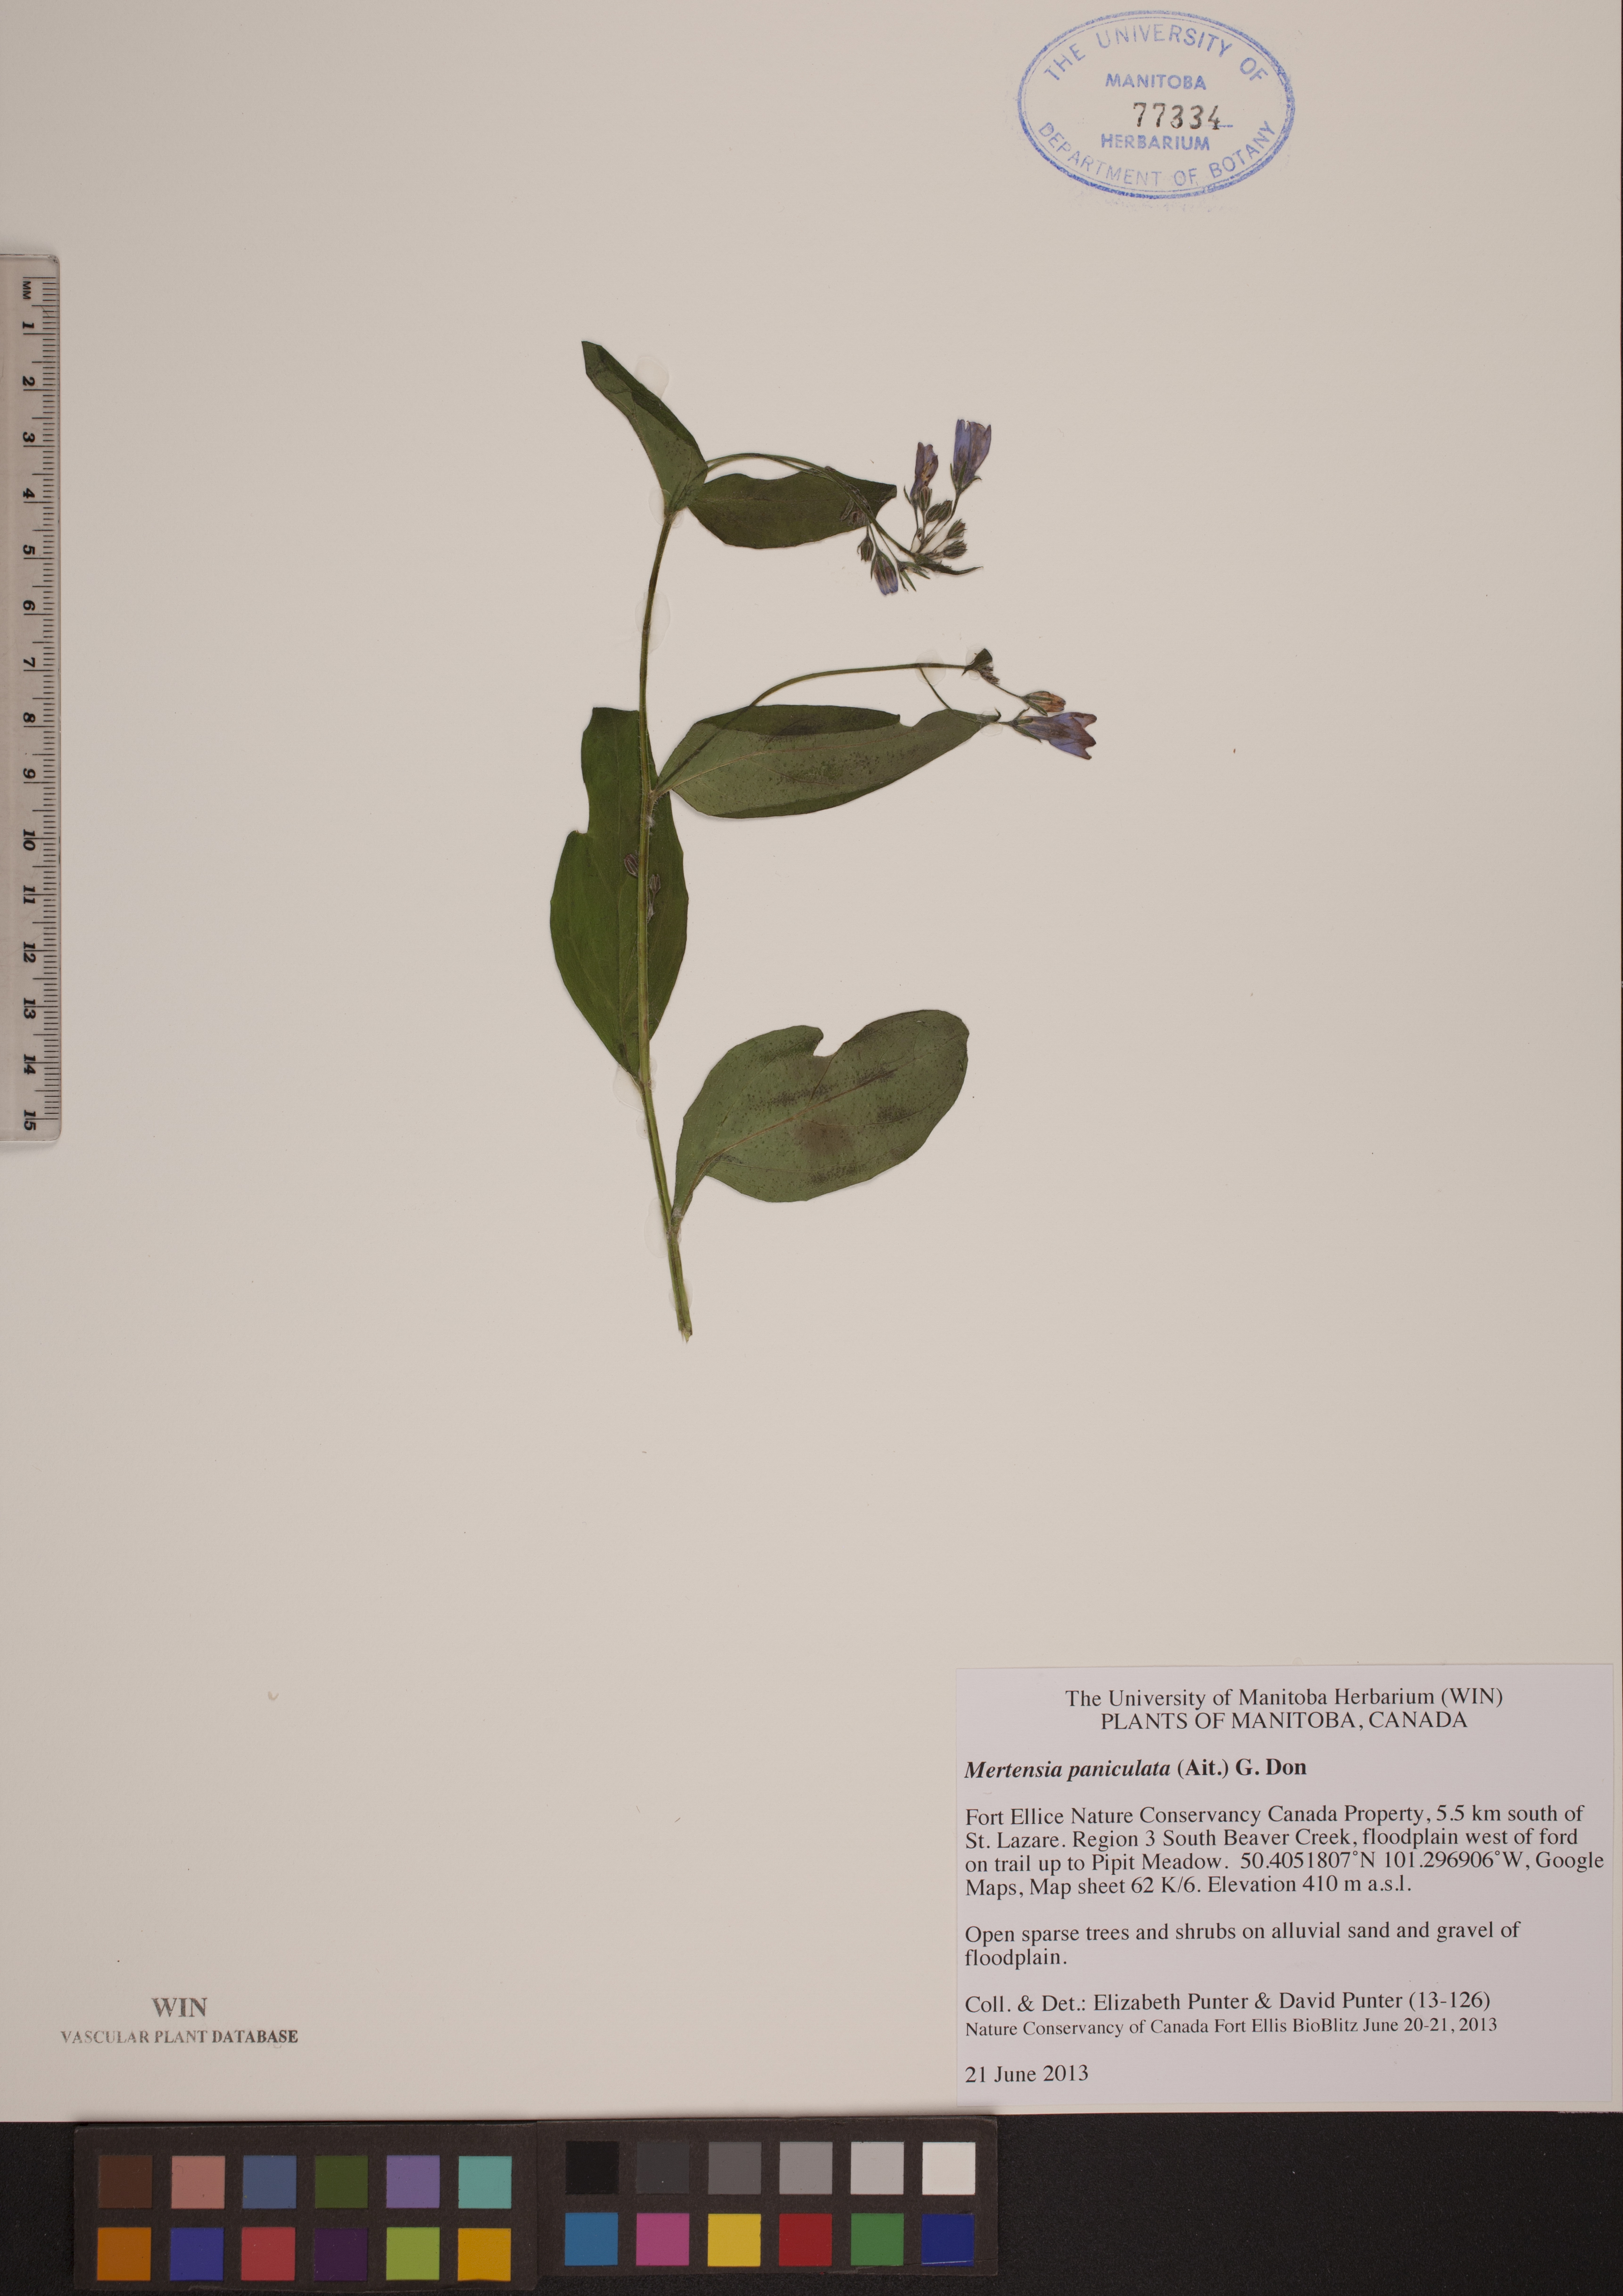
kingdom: Plantae
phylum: Tracheophyta
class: Magnoliopsida
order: Boraginales
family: Boraginaceae
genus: Mertensia
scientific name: Mertensia paniculata
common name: Panicled bluebells
